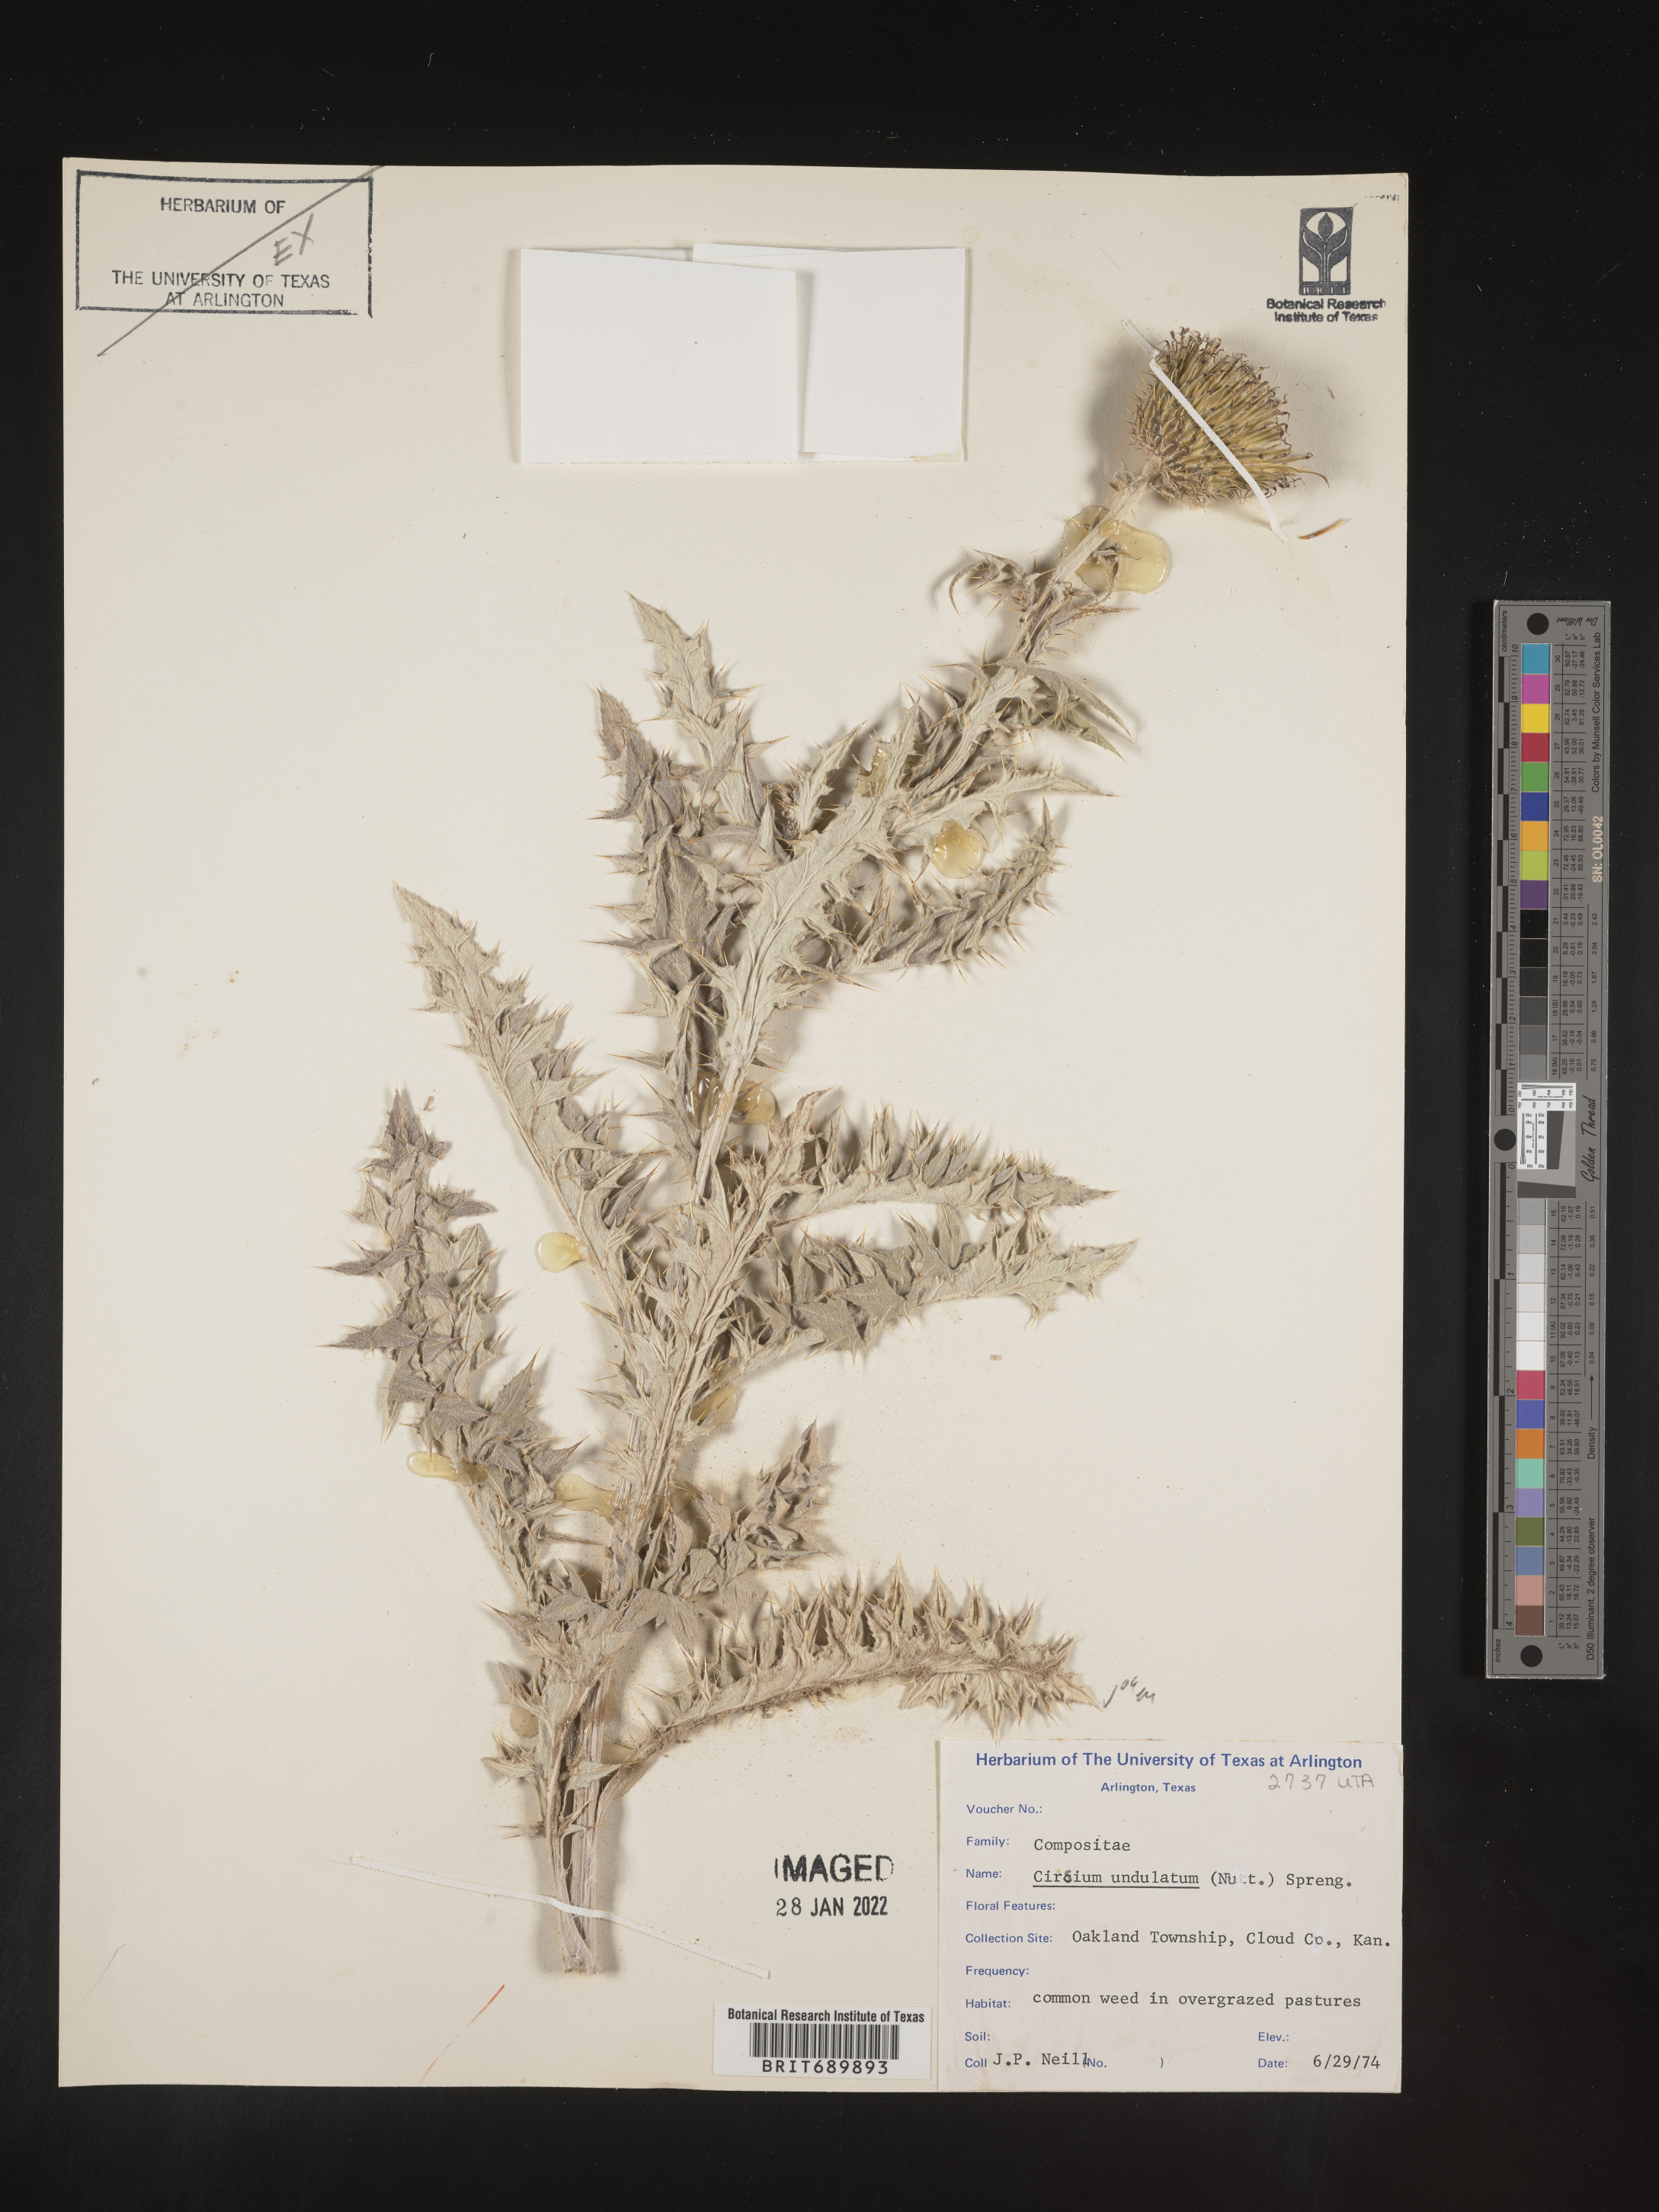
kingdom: Plantae
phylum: Tracheophyta
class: Magnoliopsida
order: Asterales
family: Asteraceae
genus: Cirsium
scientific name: Cirsium undulatum
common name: Pasture thistle
